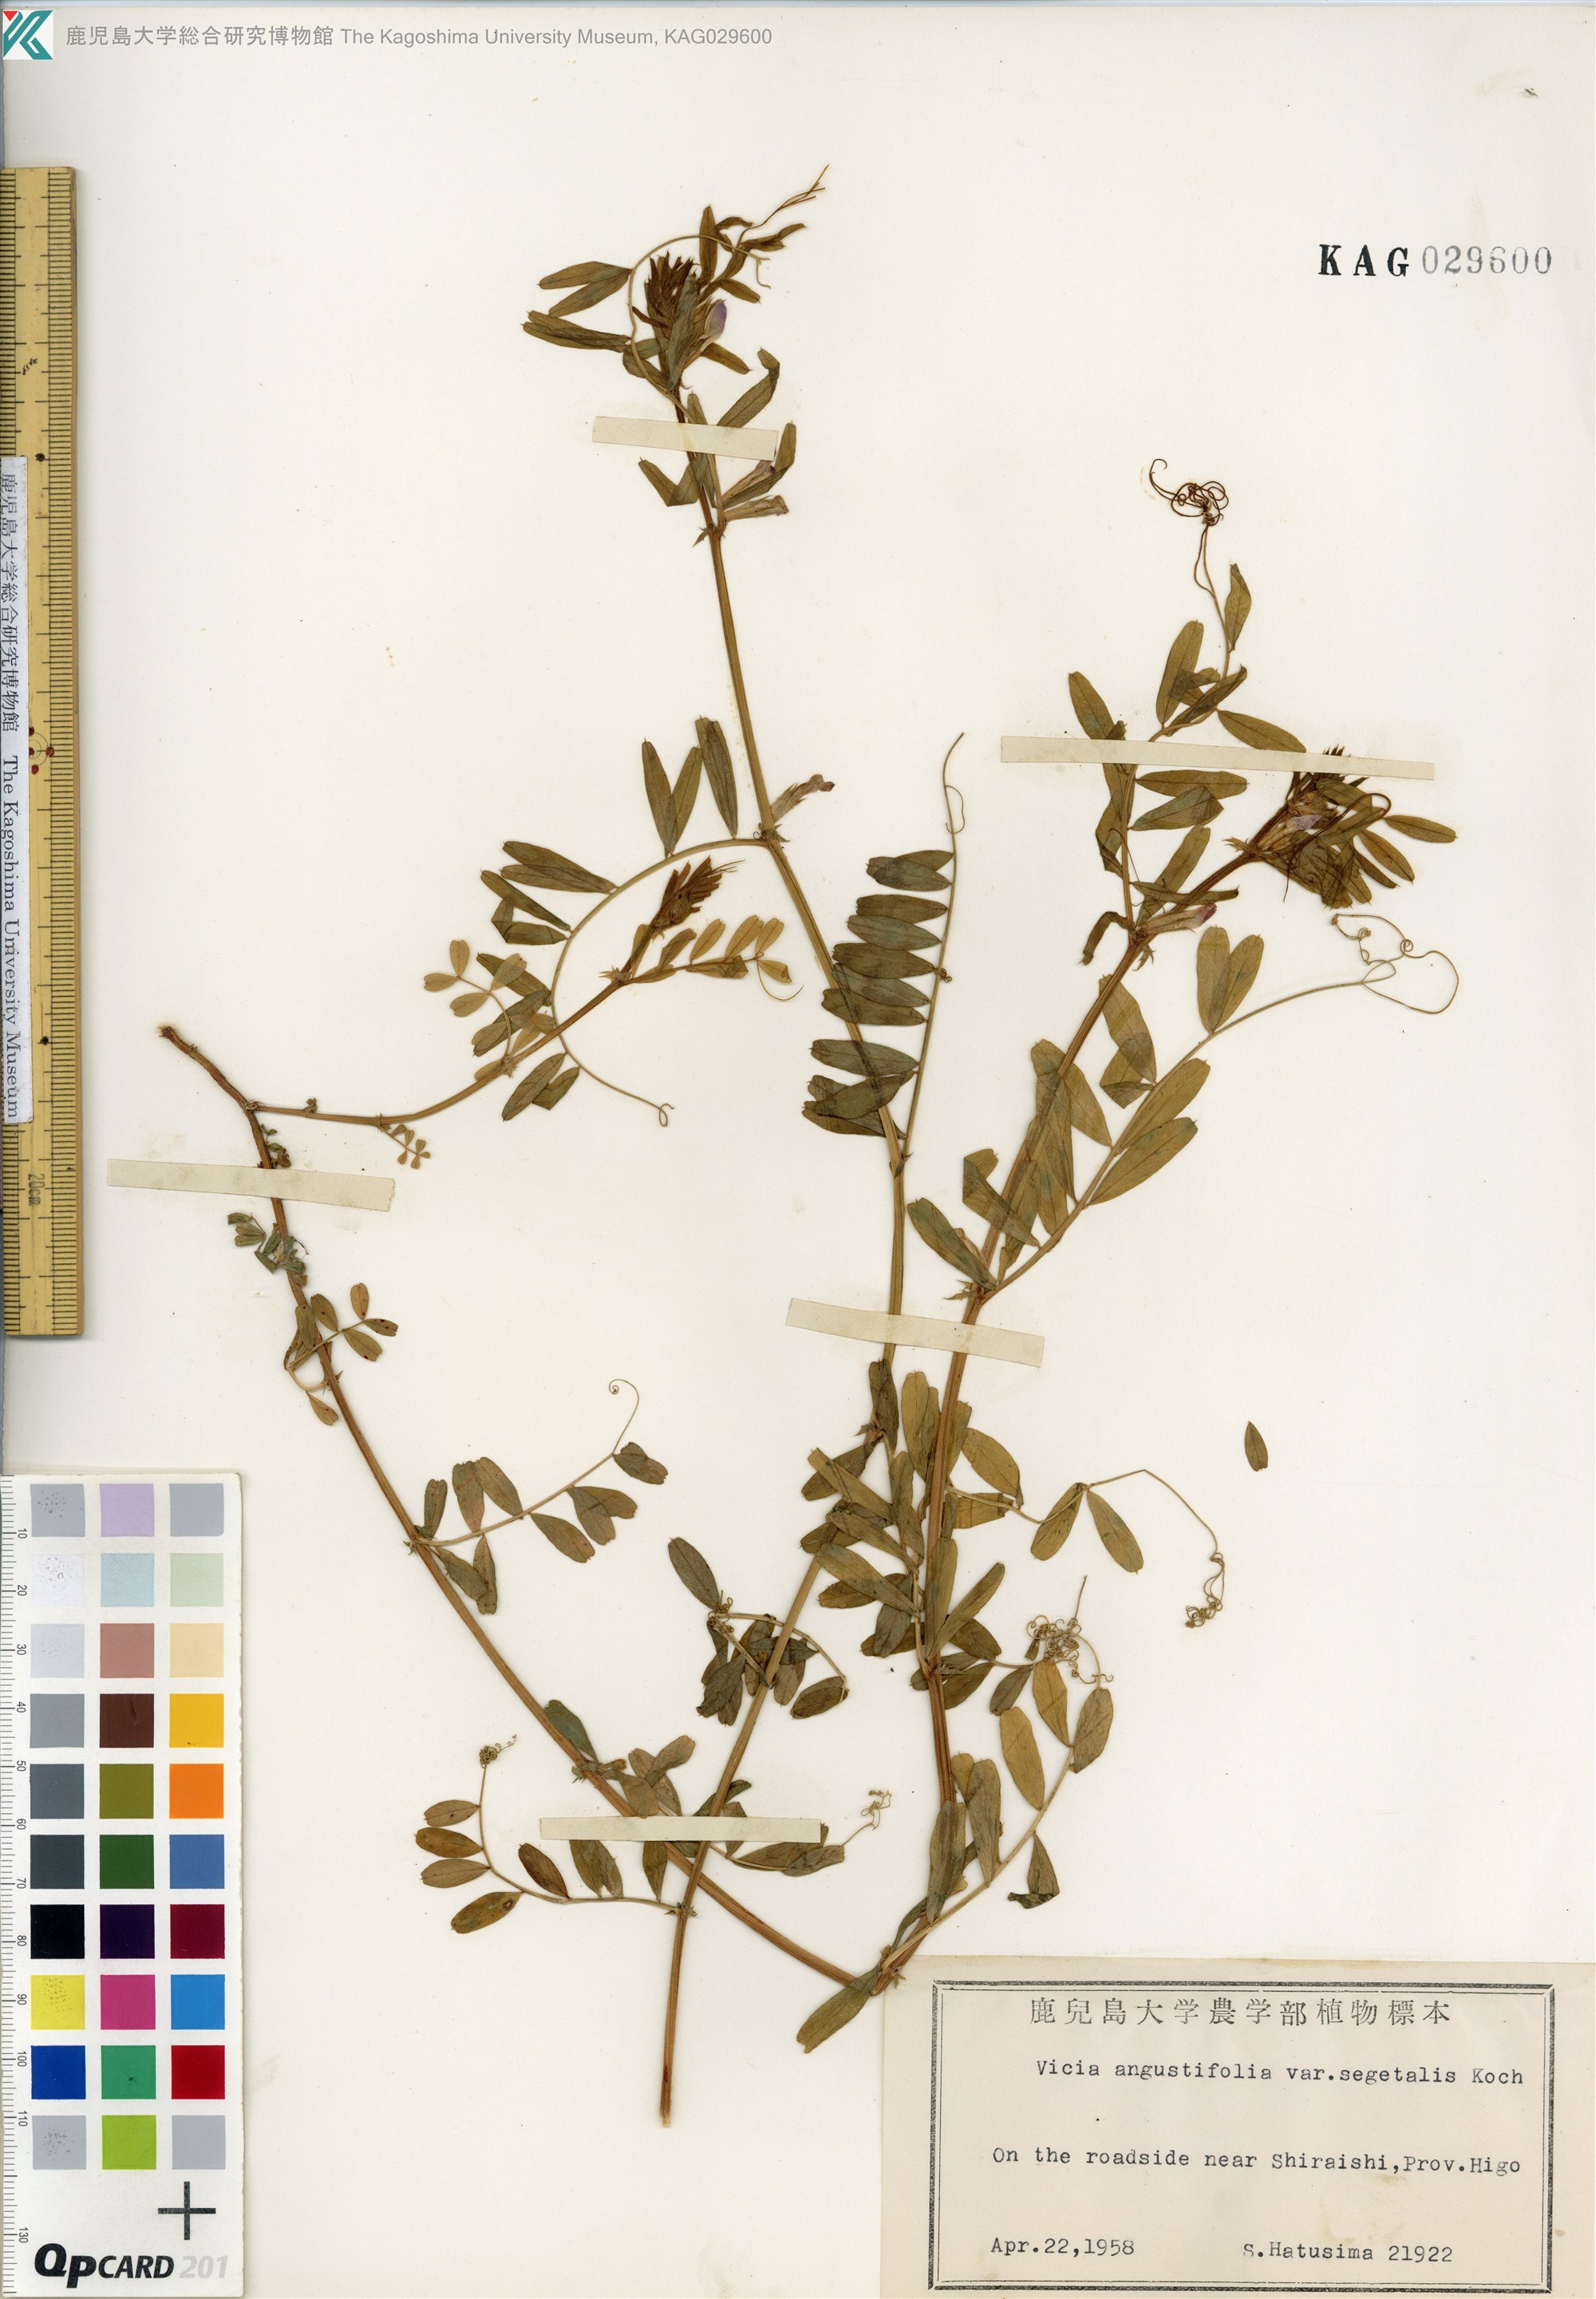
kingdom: Plantae
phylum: Tracheophyta
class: Magnoliopsida
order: Fabales
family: Fabaceae
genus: Vicia
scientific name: Vicia sativa
